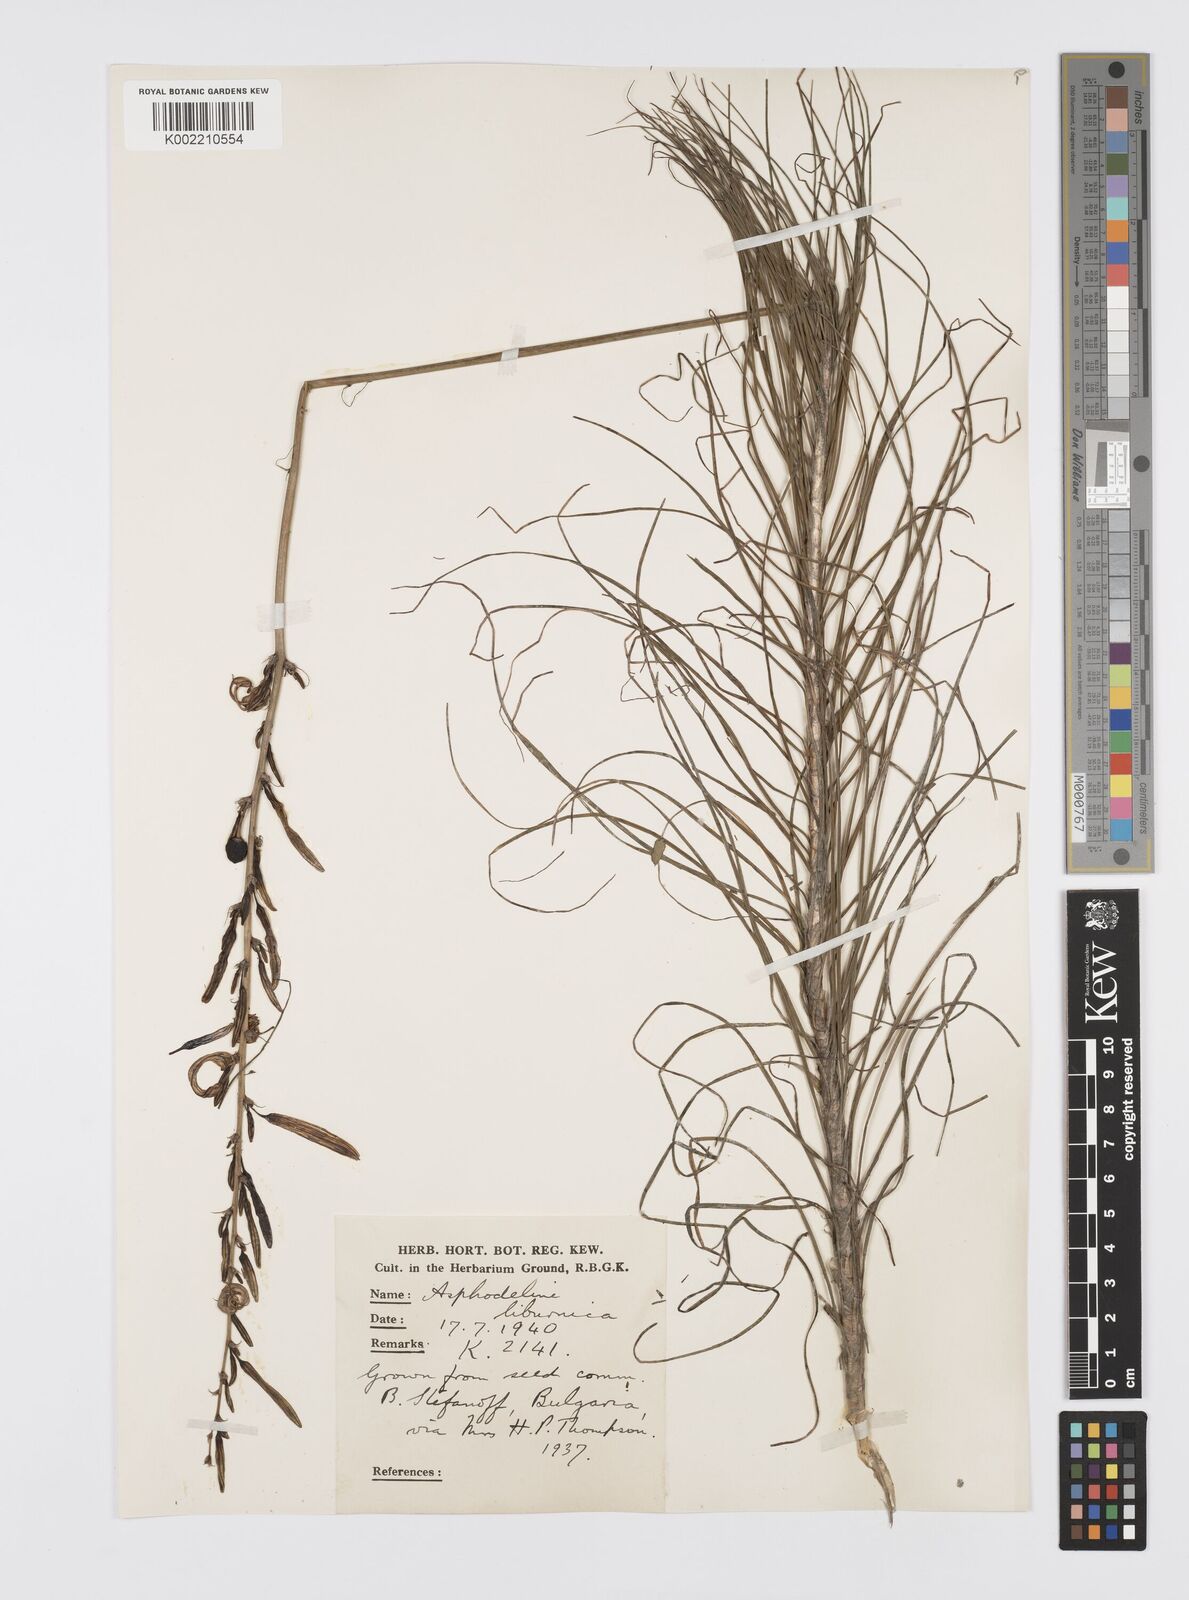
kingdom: Plantae
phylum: Tracheophyta
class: Liliopsida
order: Asparagales
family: Asphodelaceae
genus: Asphodeline
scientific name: Asphodeline liburnica
